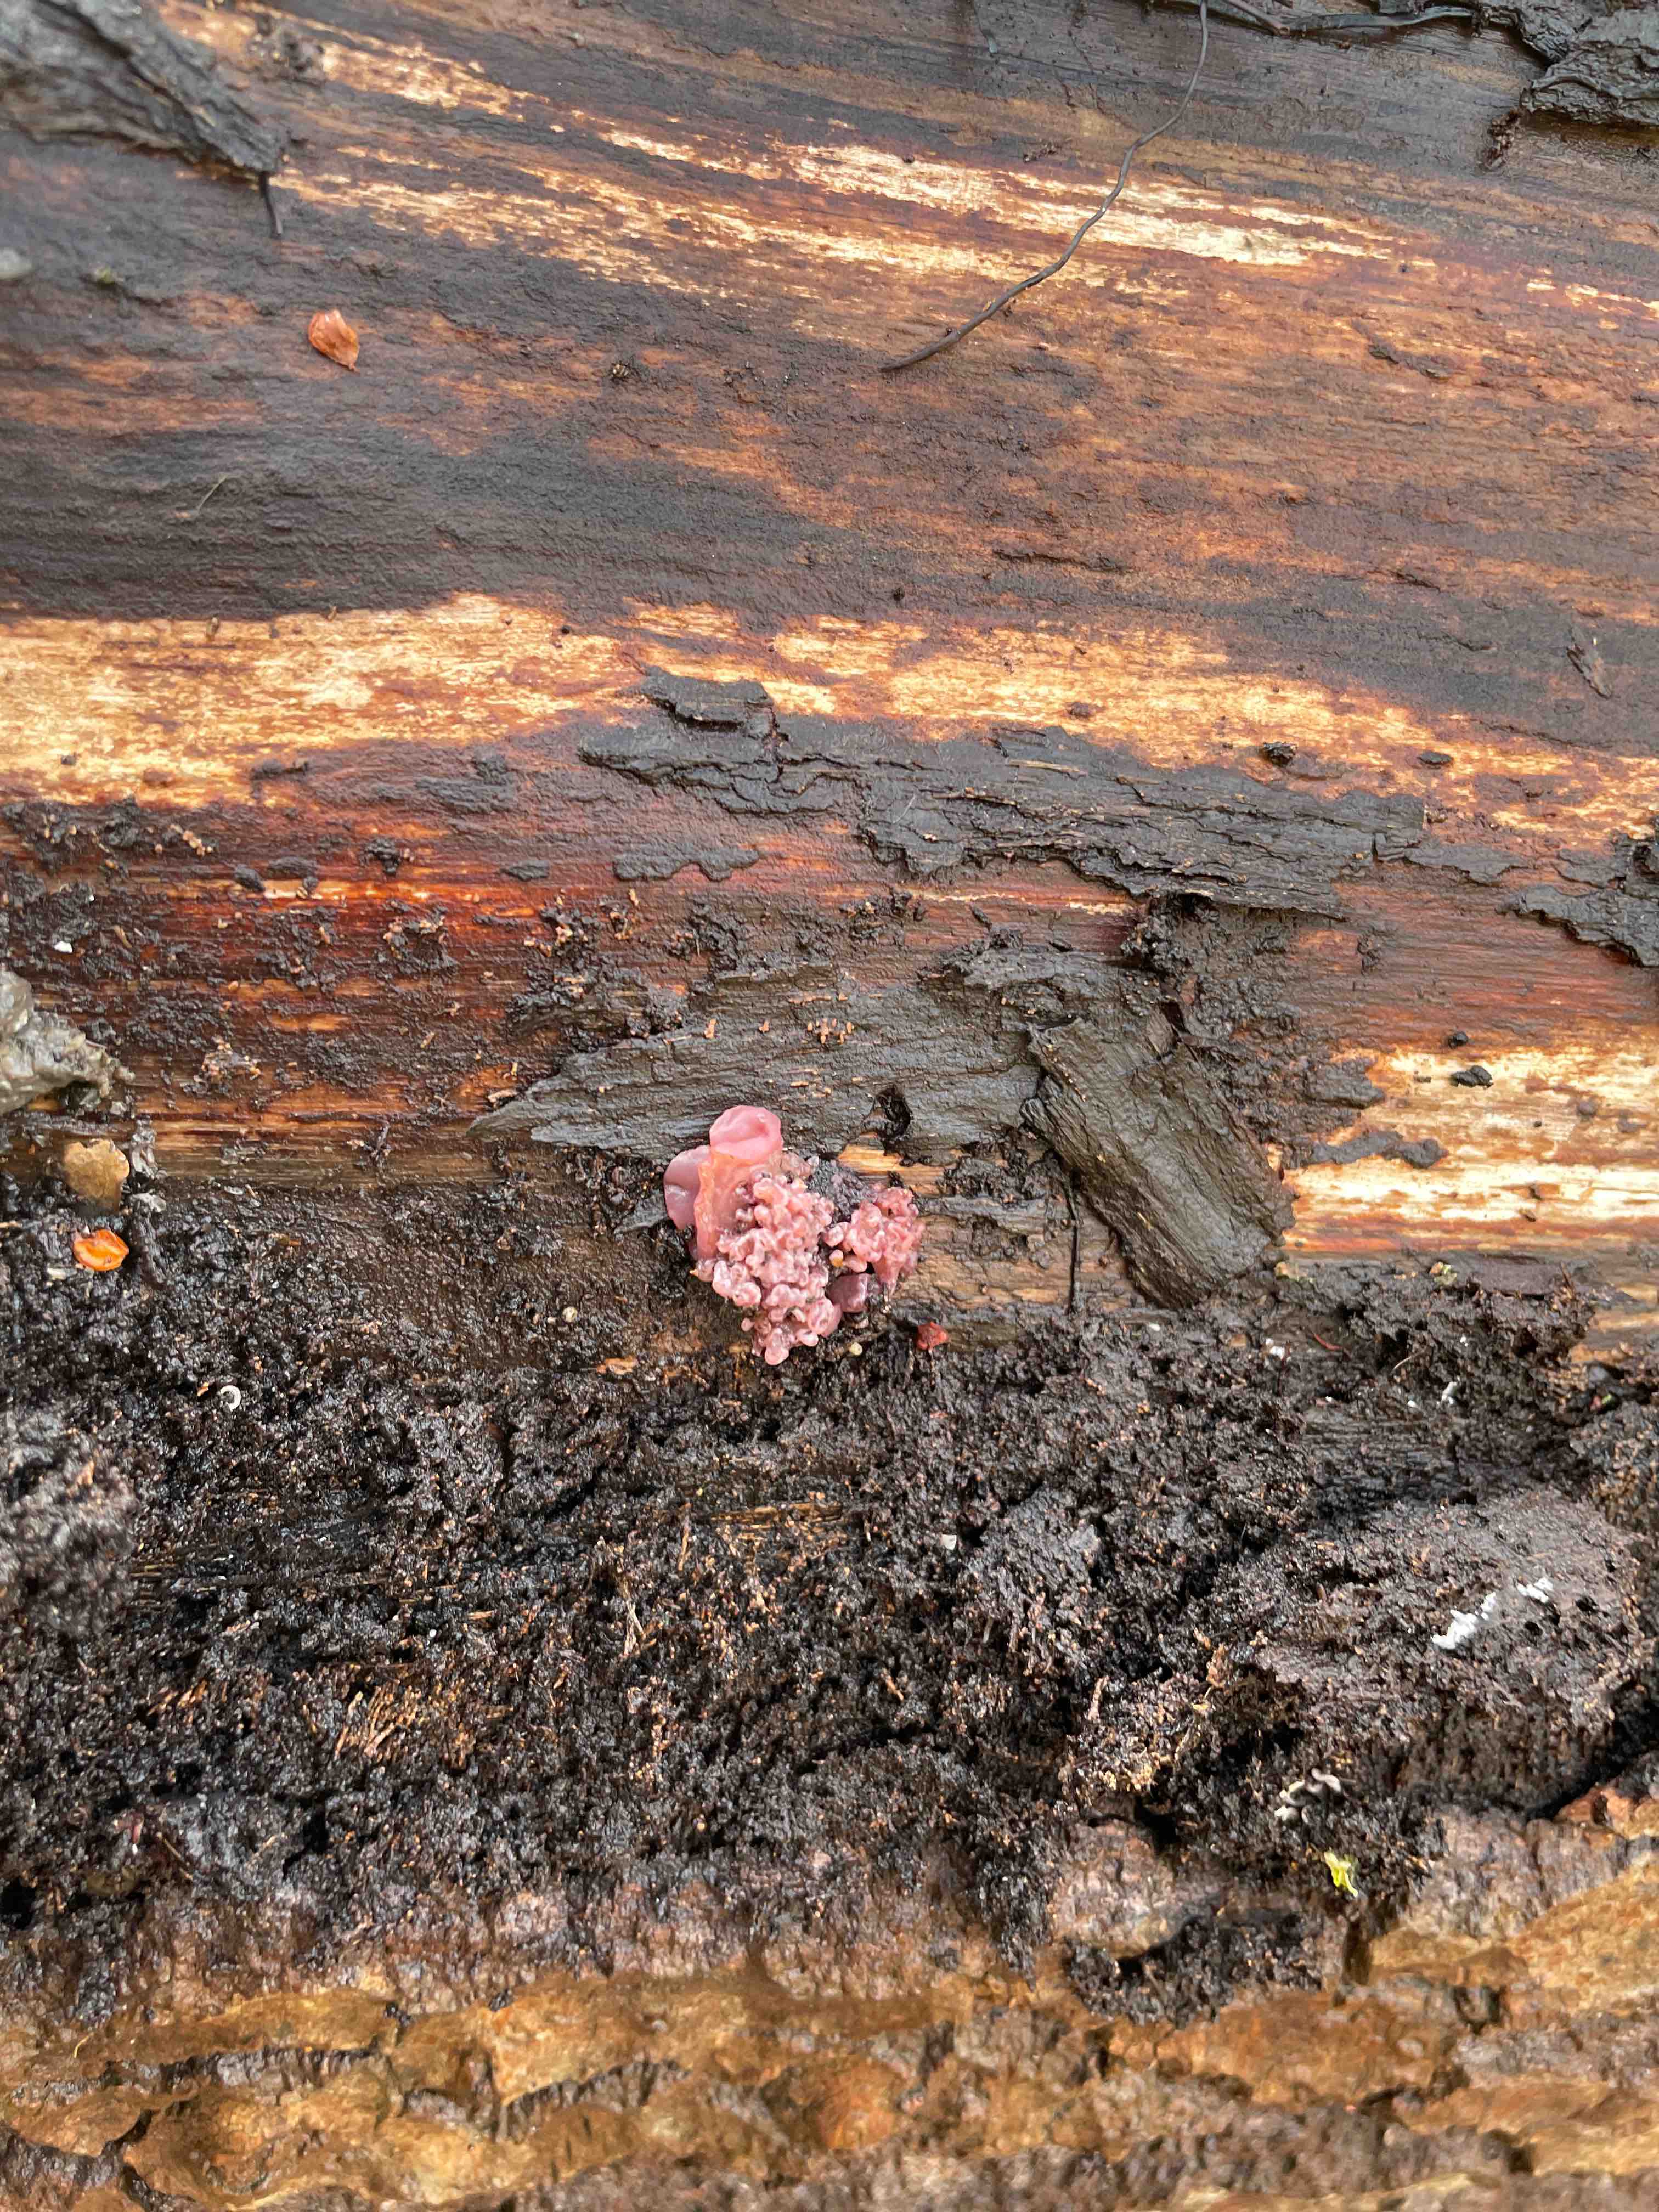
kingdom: Fungi
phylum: Ascomycota
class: Leotiomycetes
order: Helotiales
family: Gelatinodiscaceae
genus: Ascocoryne
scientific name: Ascocoryne sarcoides
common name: rødlilla sejskive
